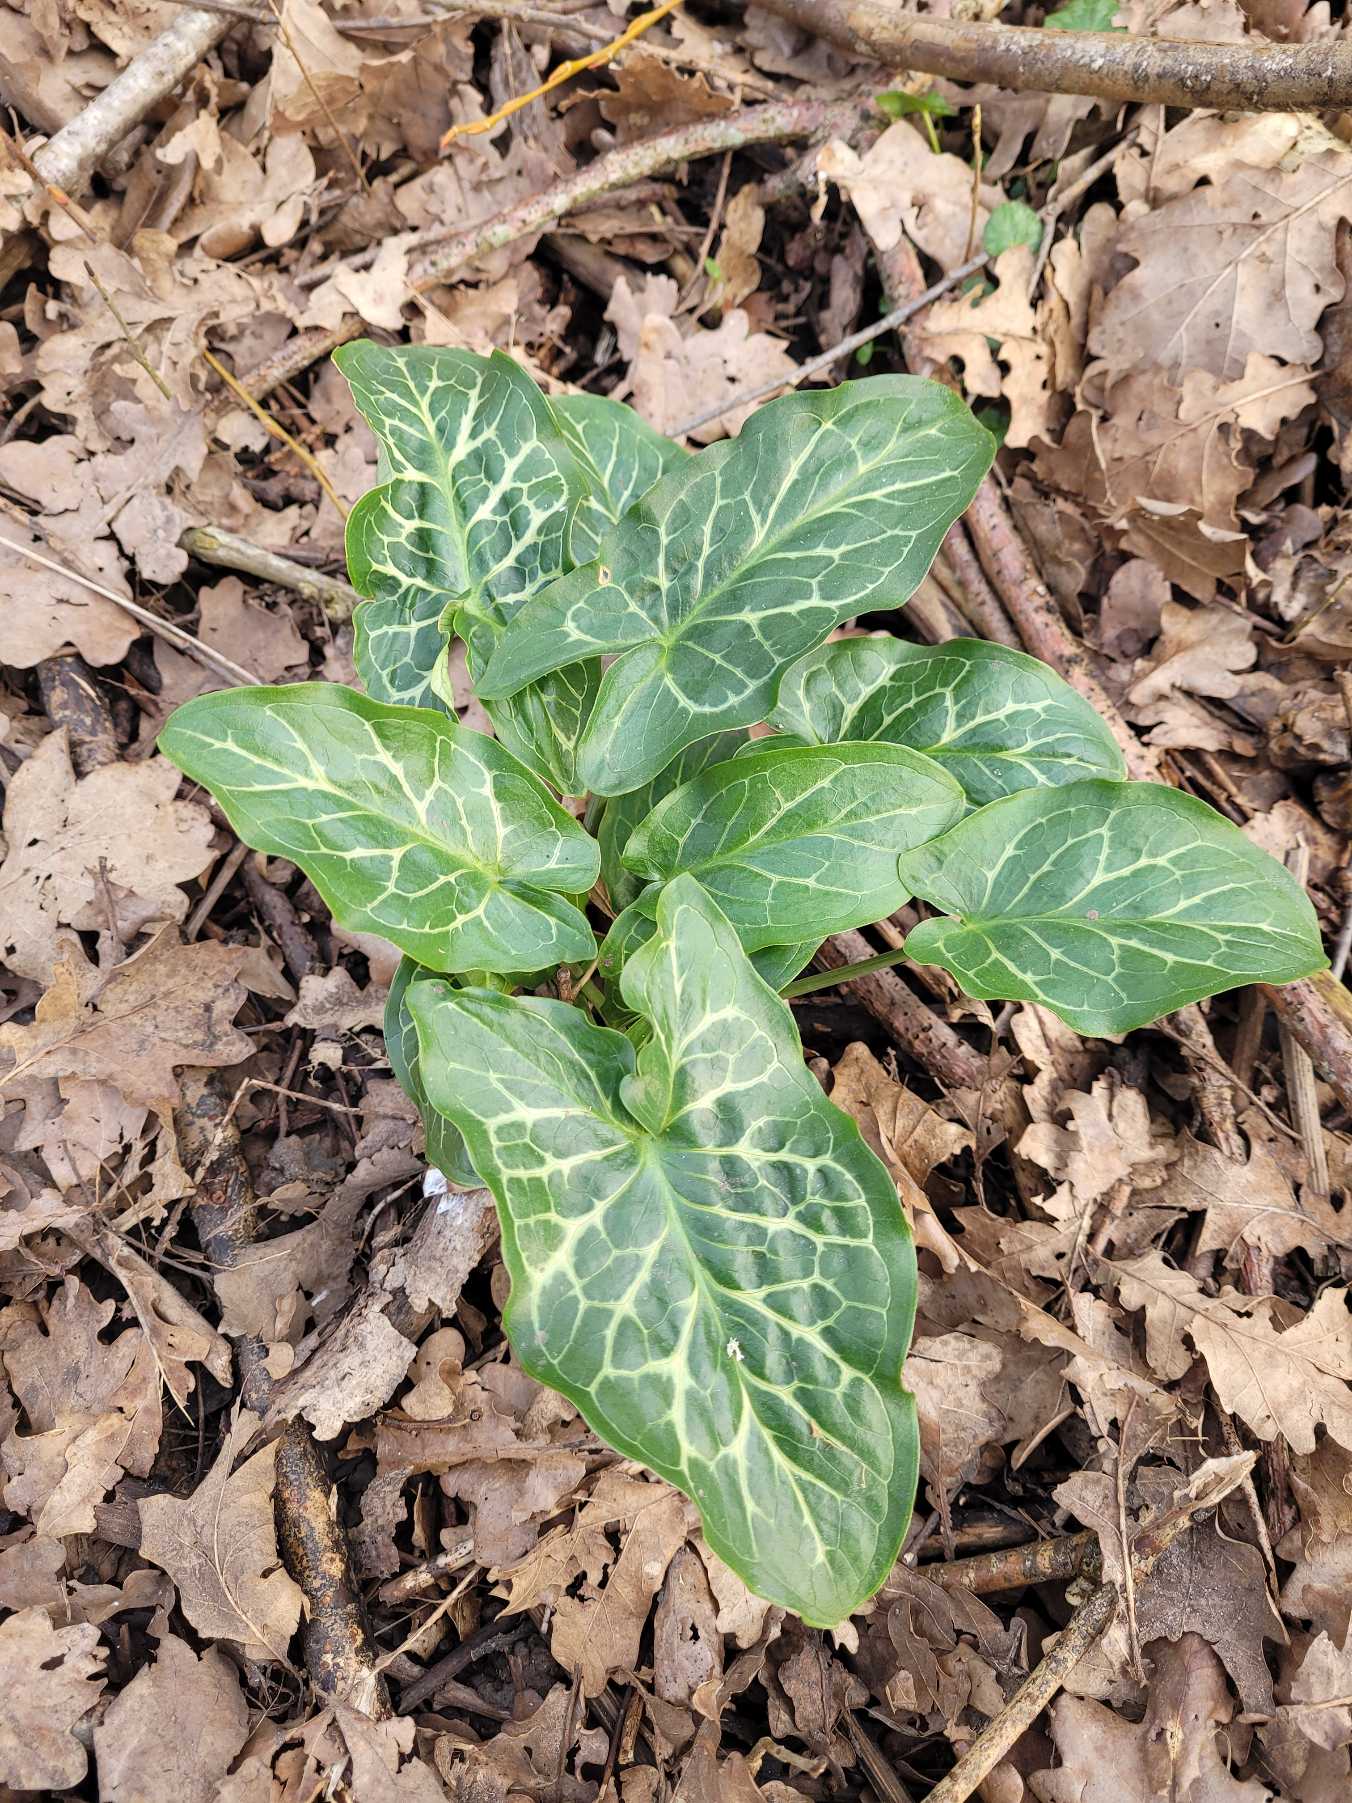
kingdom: Plantae
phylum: Tracheophyta
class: Liliopsida
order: Alismatales
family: Araceae
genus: Arum
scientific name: Arum italicum
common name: Italiensk arum
